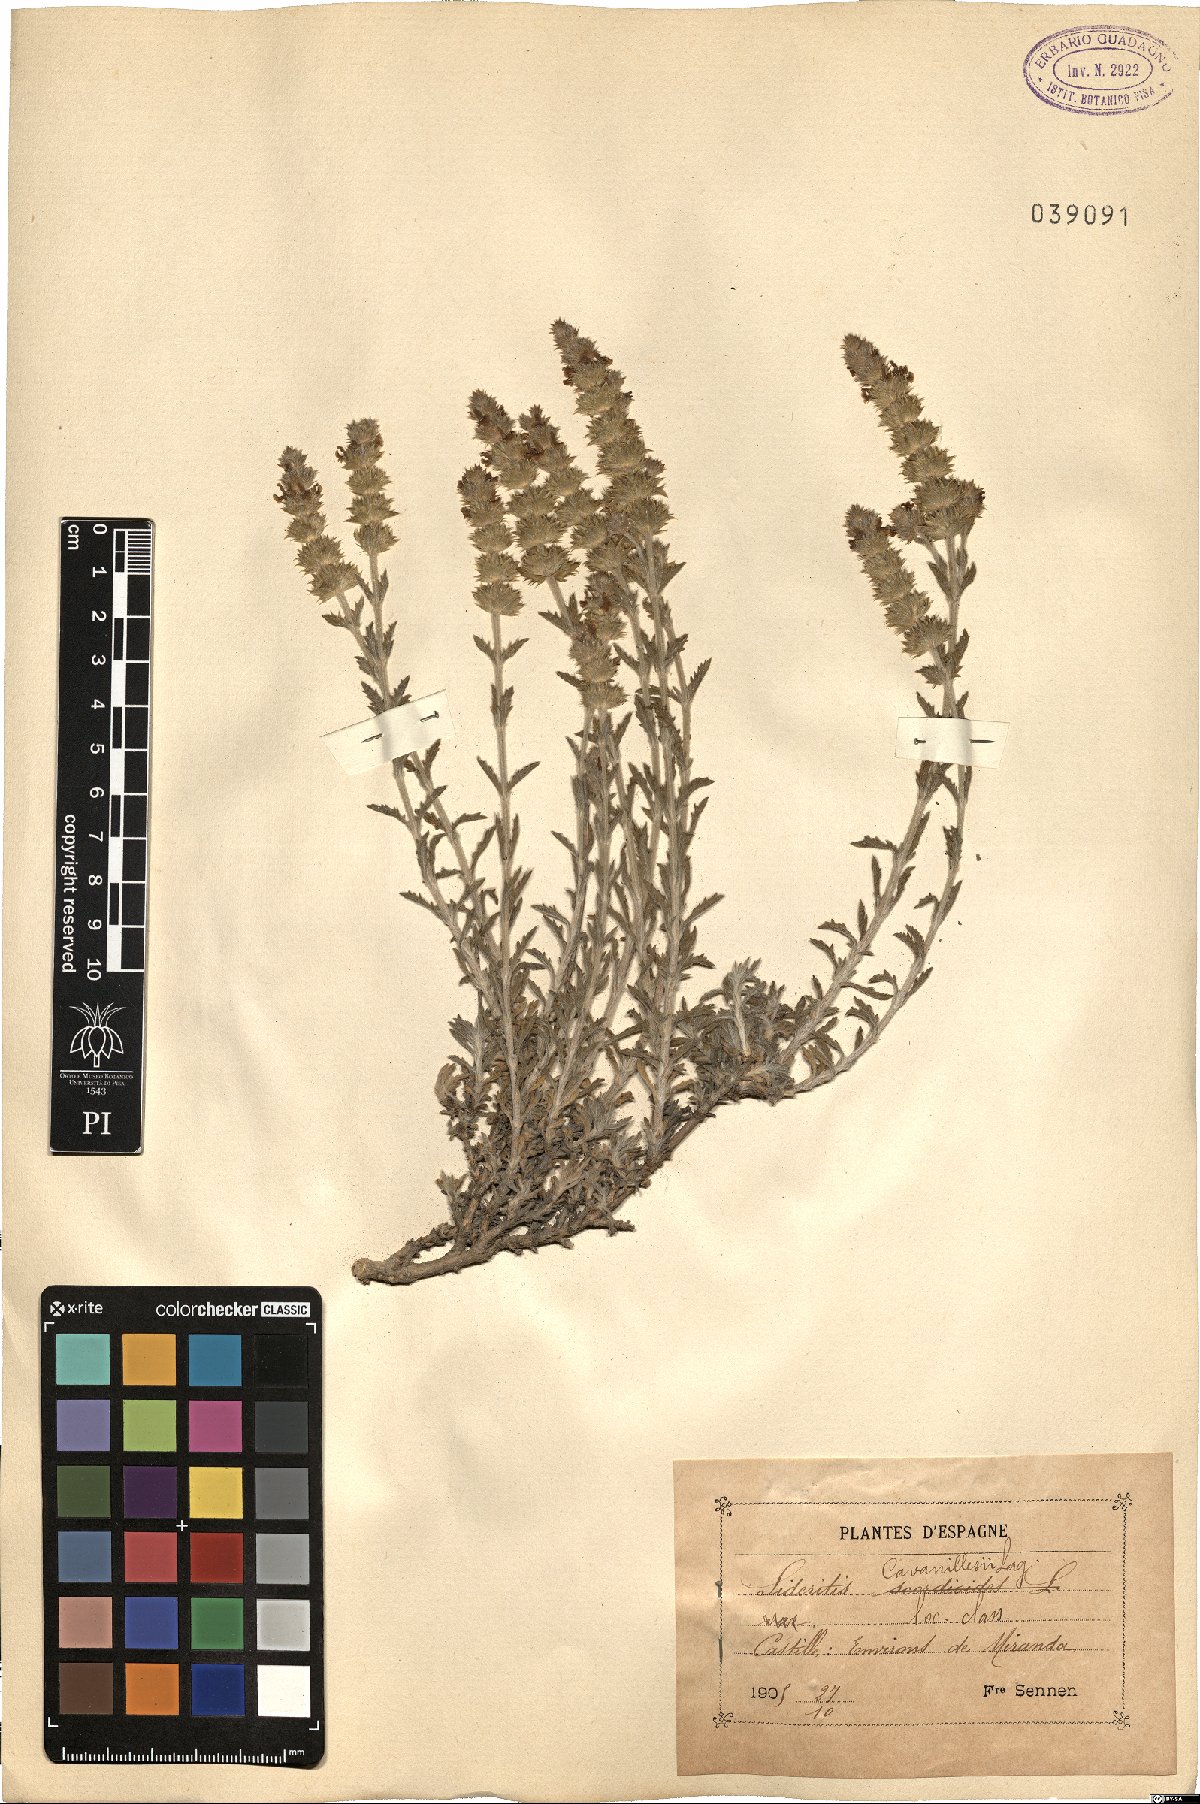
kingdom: Plantae
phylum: Tracheophyta
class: Magnoliopsida
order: Lamiales
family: Lamiaceae
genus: Sideritis
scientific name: Sideritis fruticulosa
